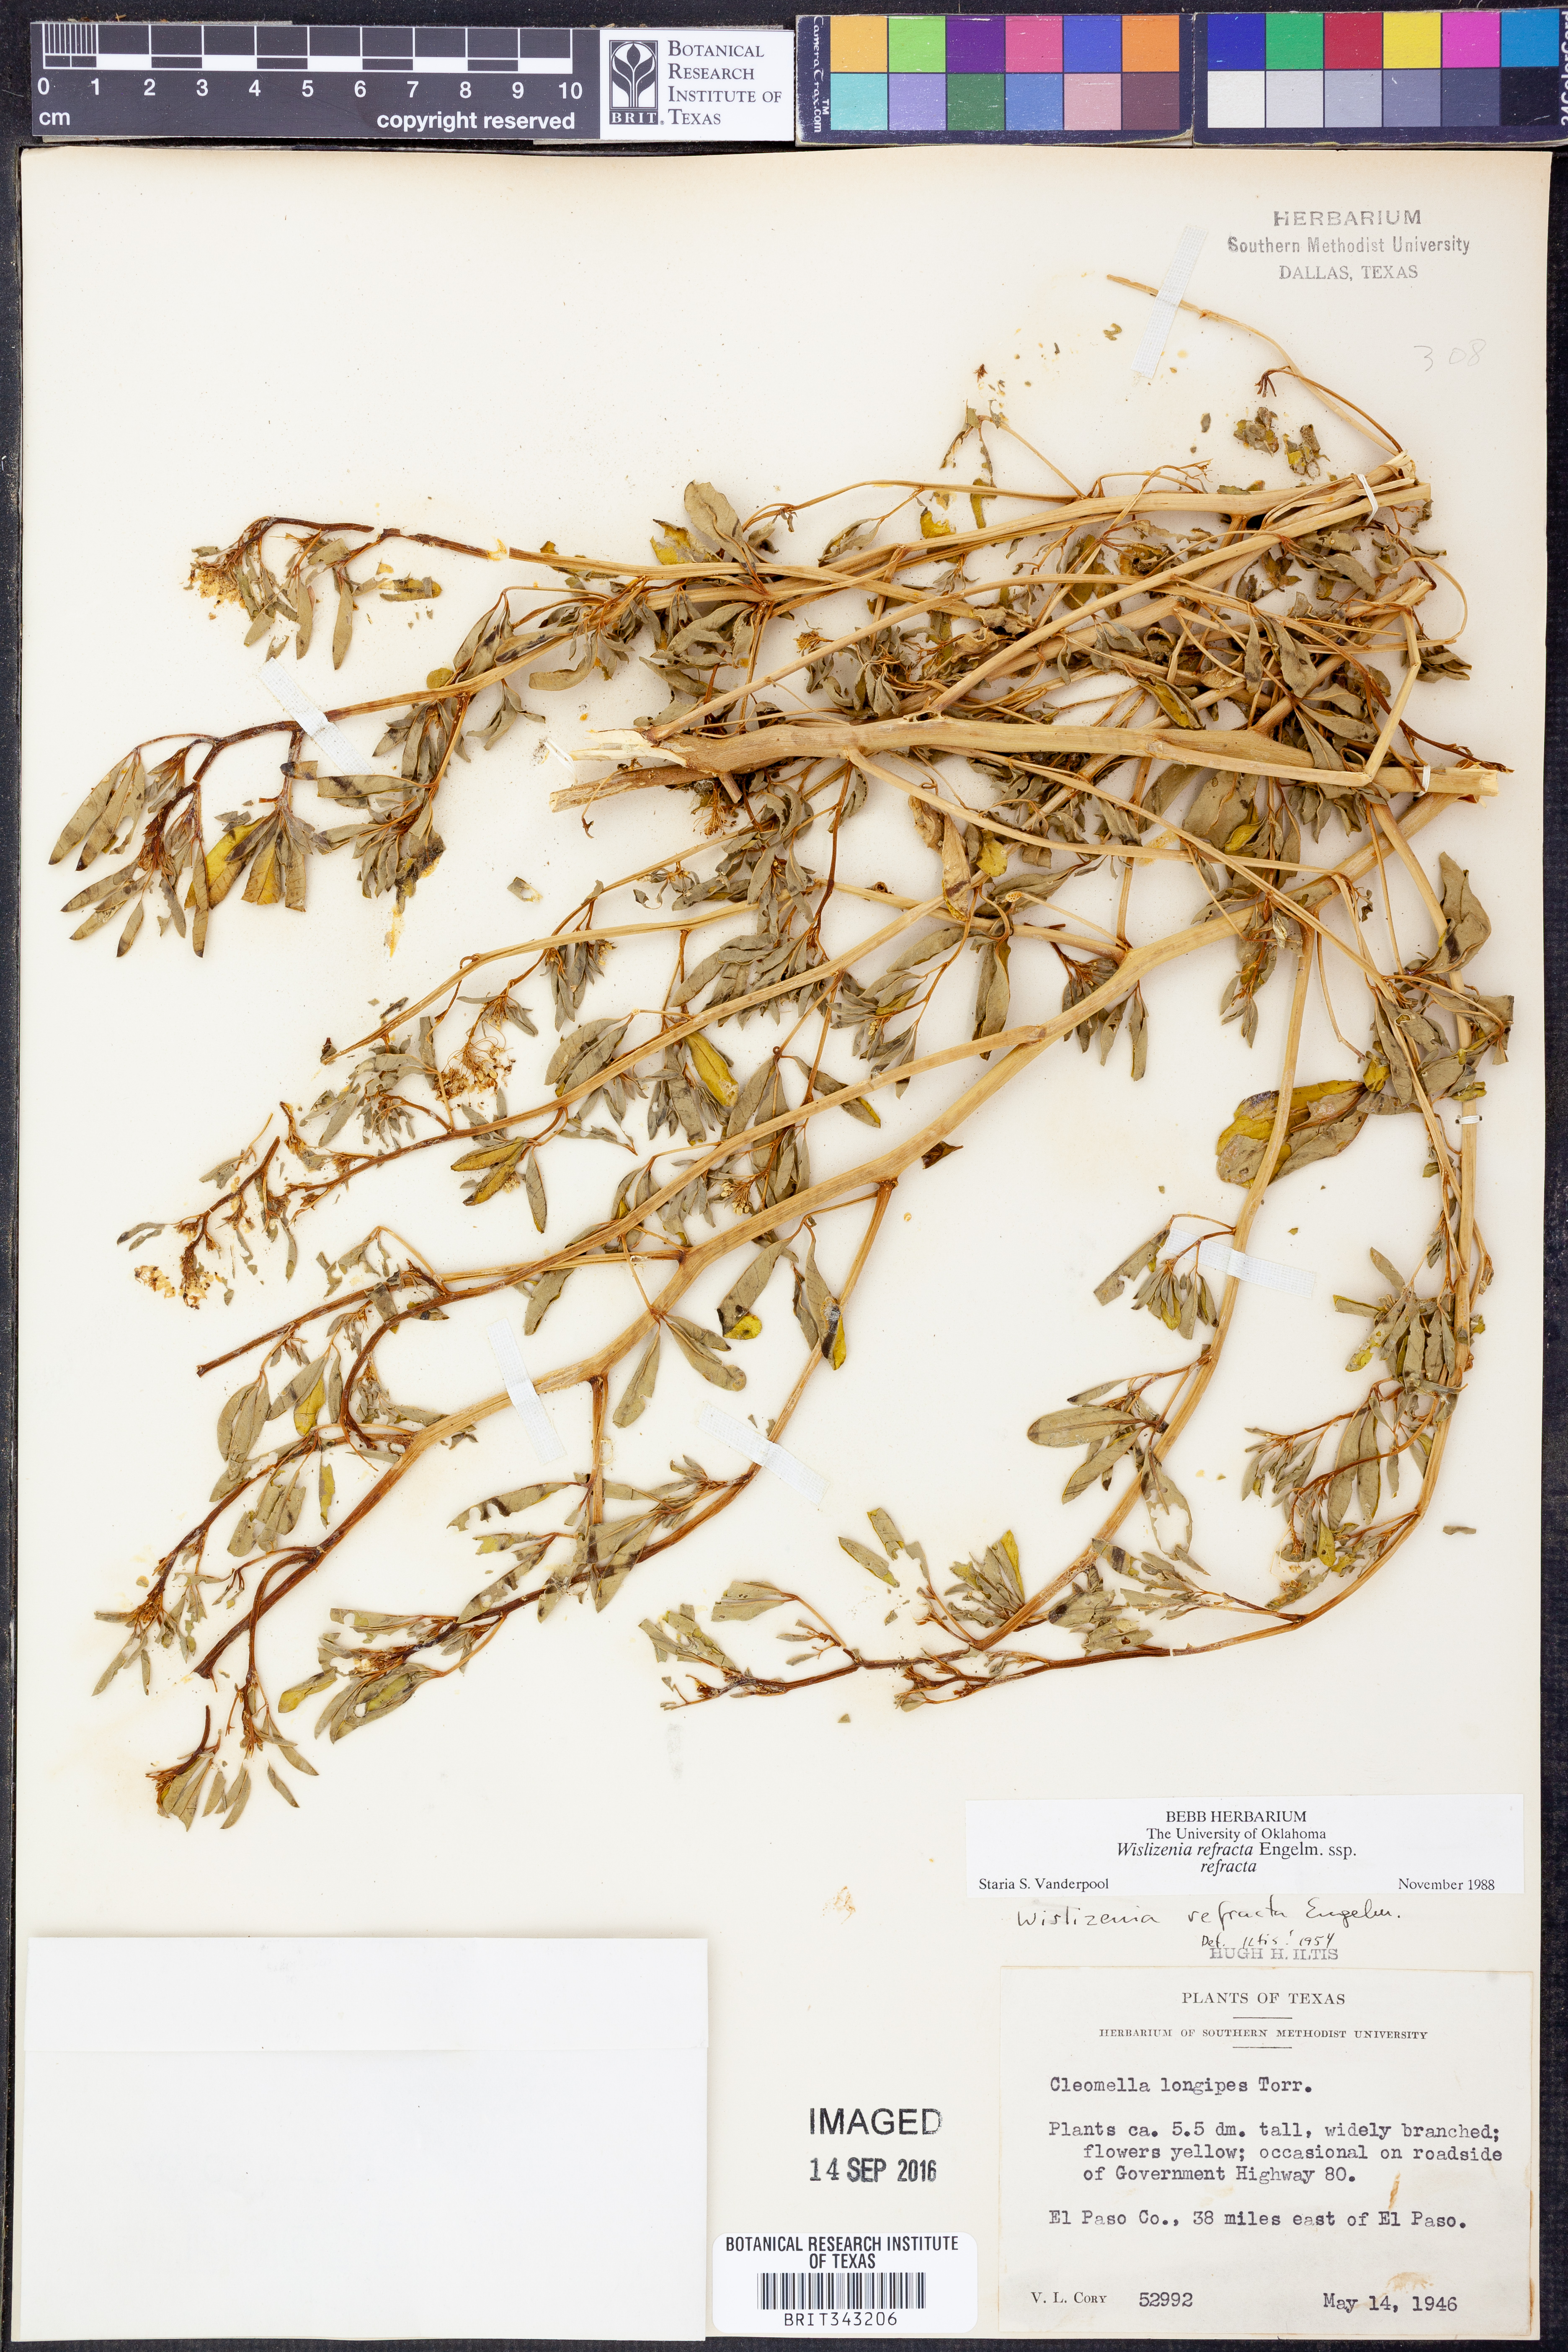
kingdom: Plantae
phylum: Tracheophyta
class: Magnoliopsida
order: Brassicales
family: Cleomaceae
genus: Cleomella
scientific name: Cleomella refracta
